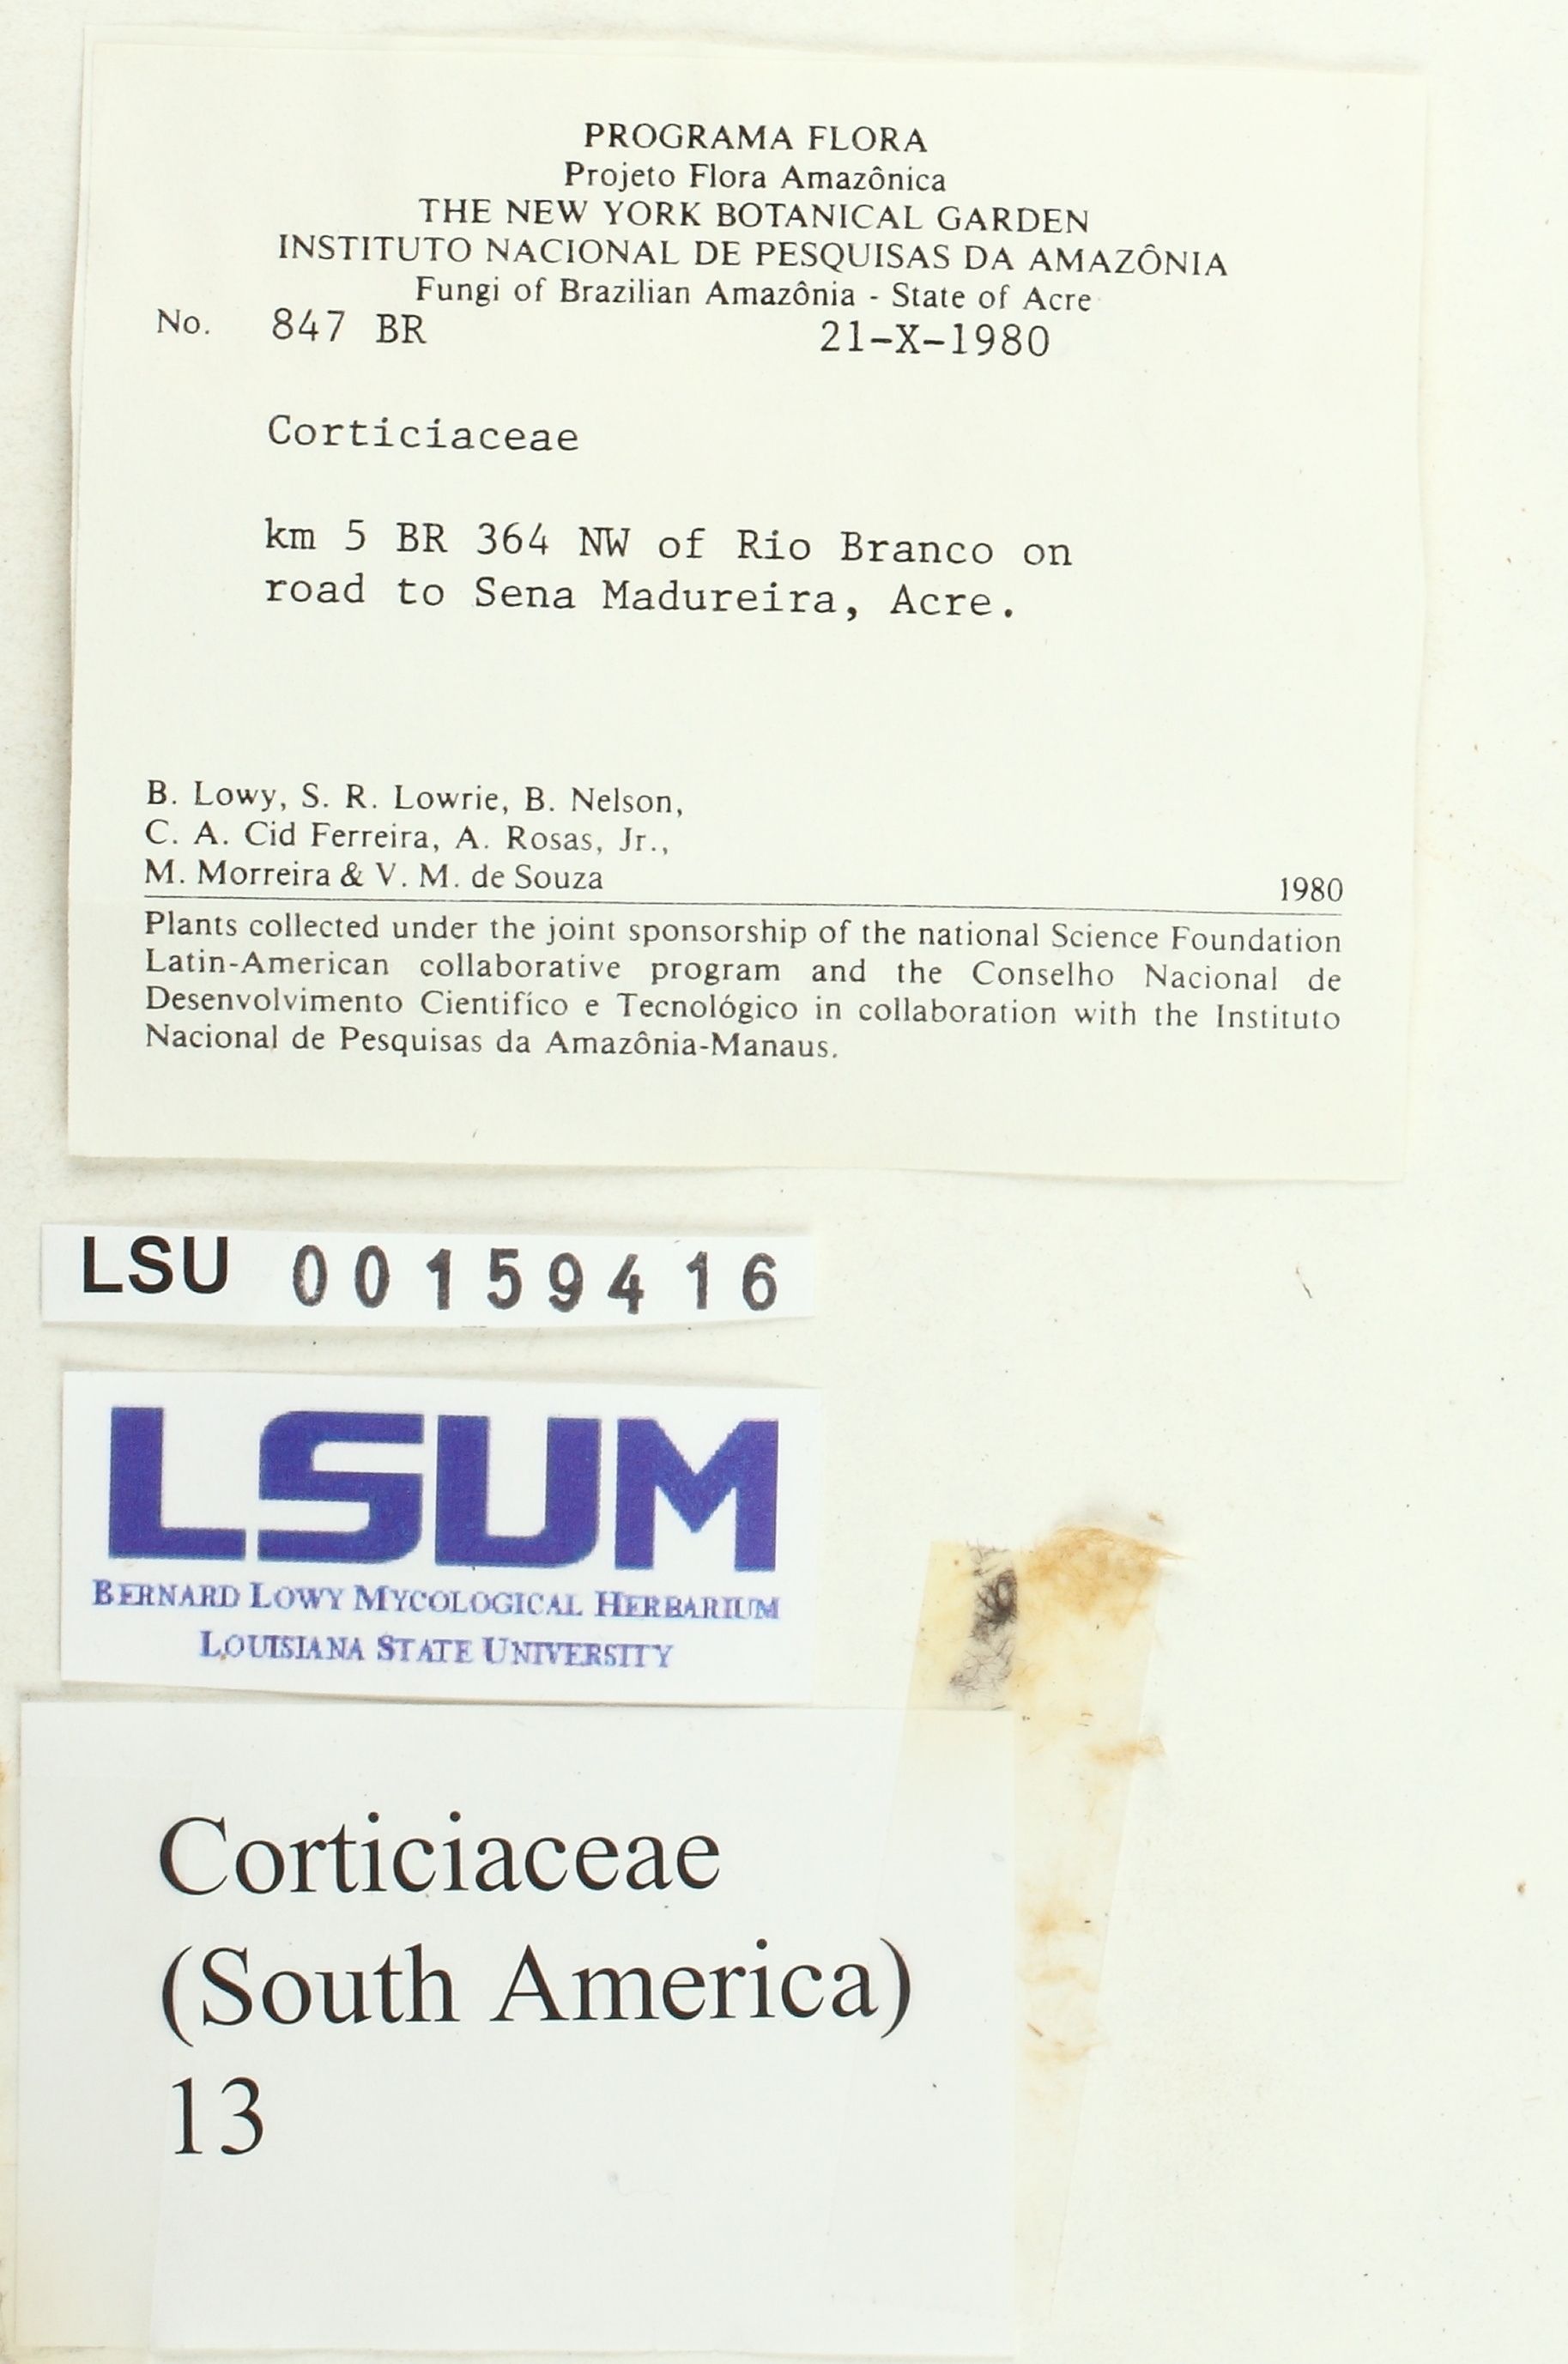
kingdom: Fungi
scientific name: Fungi
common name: Fungi
